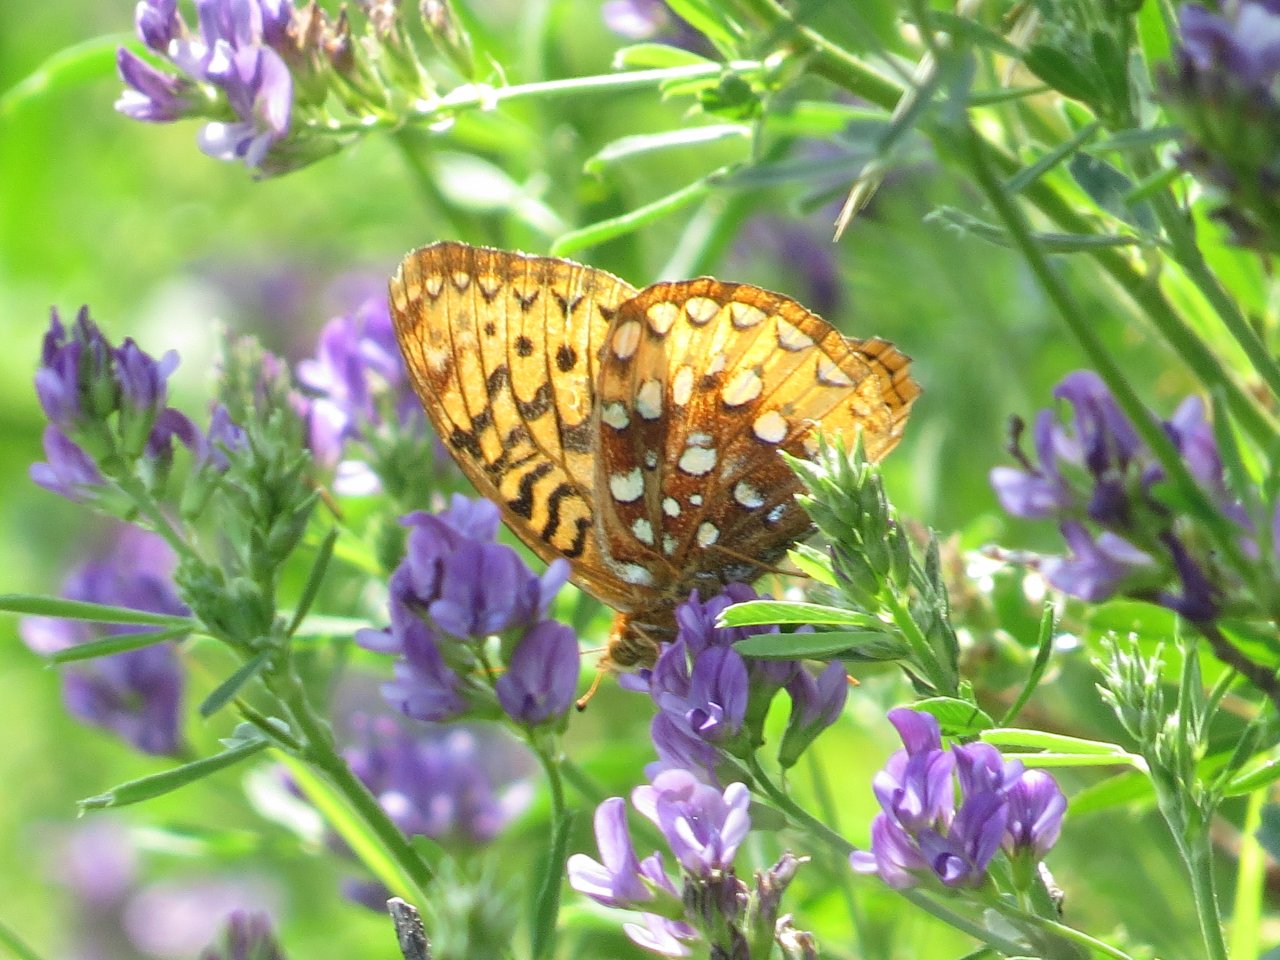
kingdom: Animalia
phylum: Arthropoda
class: Insecta
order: Lepidoptera
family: Nymphalidae
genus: Speyeria
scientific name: Speyeria cybele
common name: Great Spangled Fritillary
